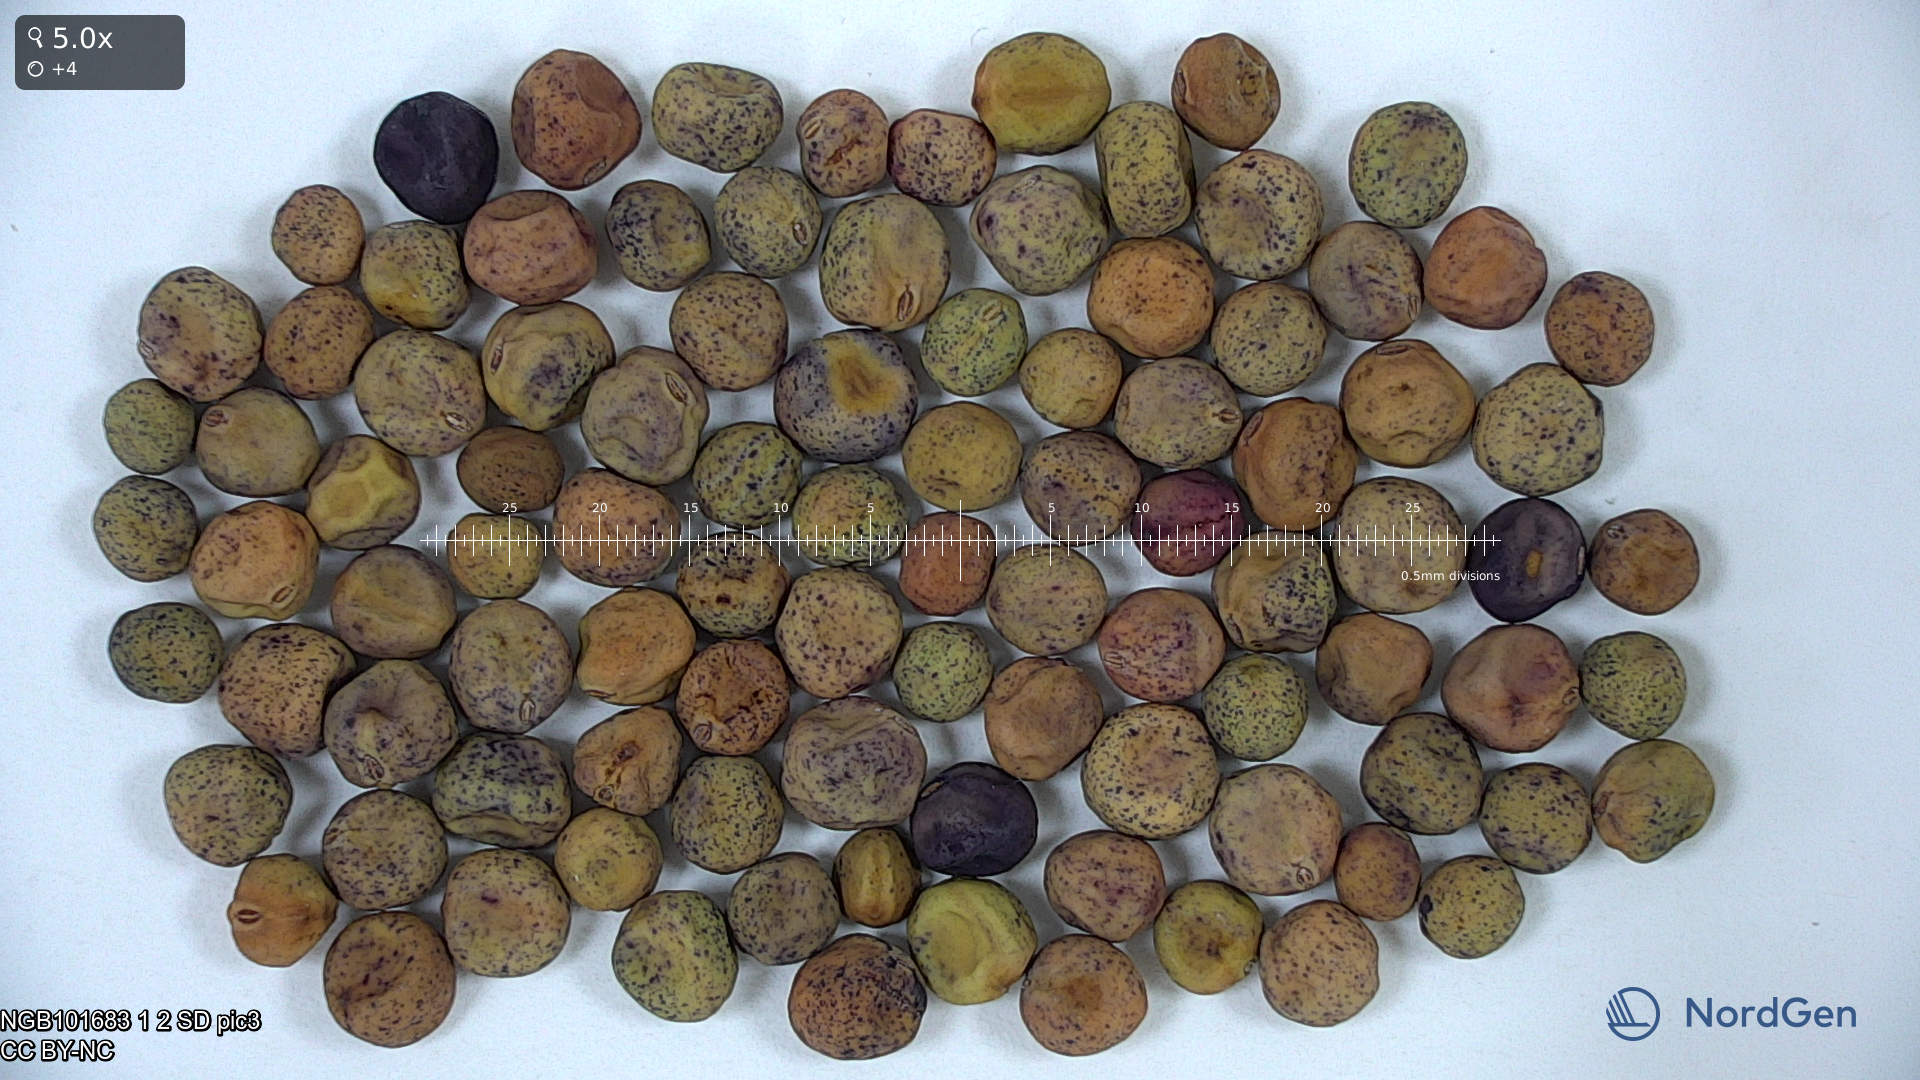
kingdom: Plantae
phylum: Tracheophyta
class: Magnoliopsida
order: Fabales
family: Fabaceae
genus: Lathyrus
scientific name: Lathyrus oleraceus
